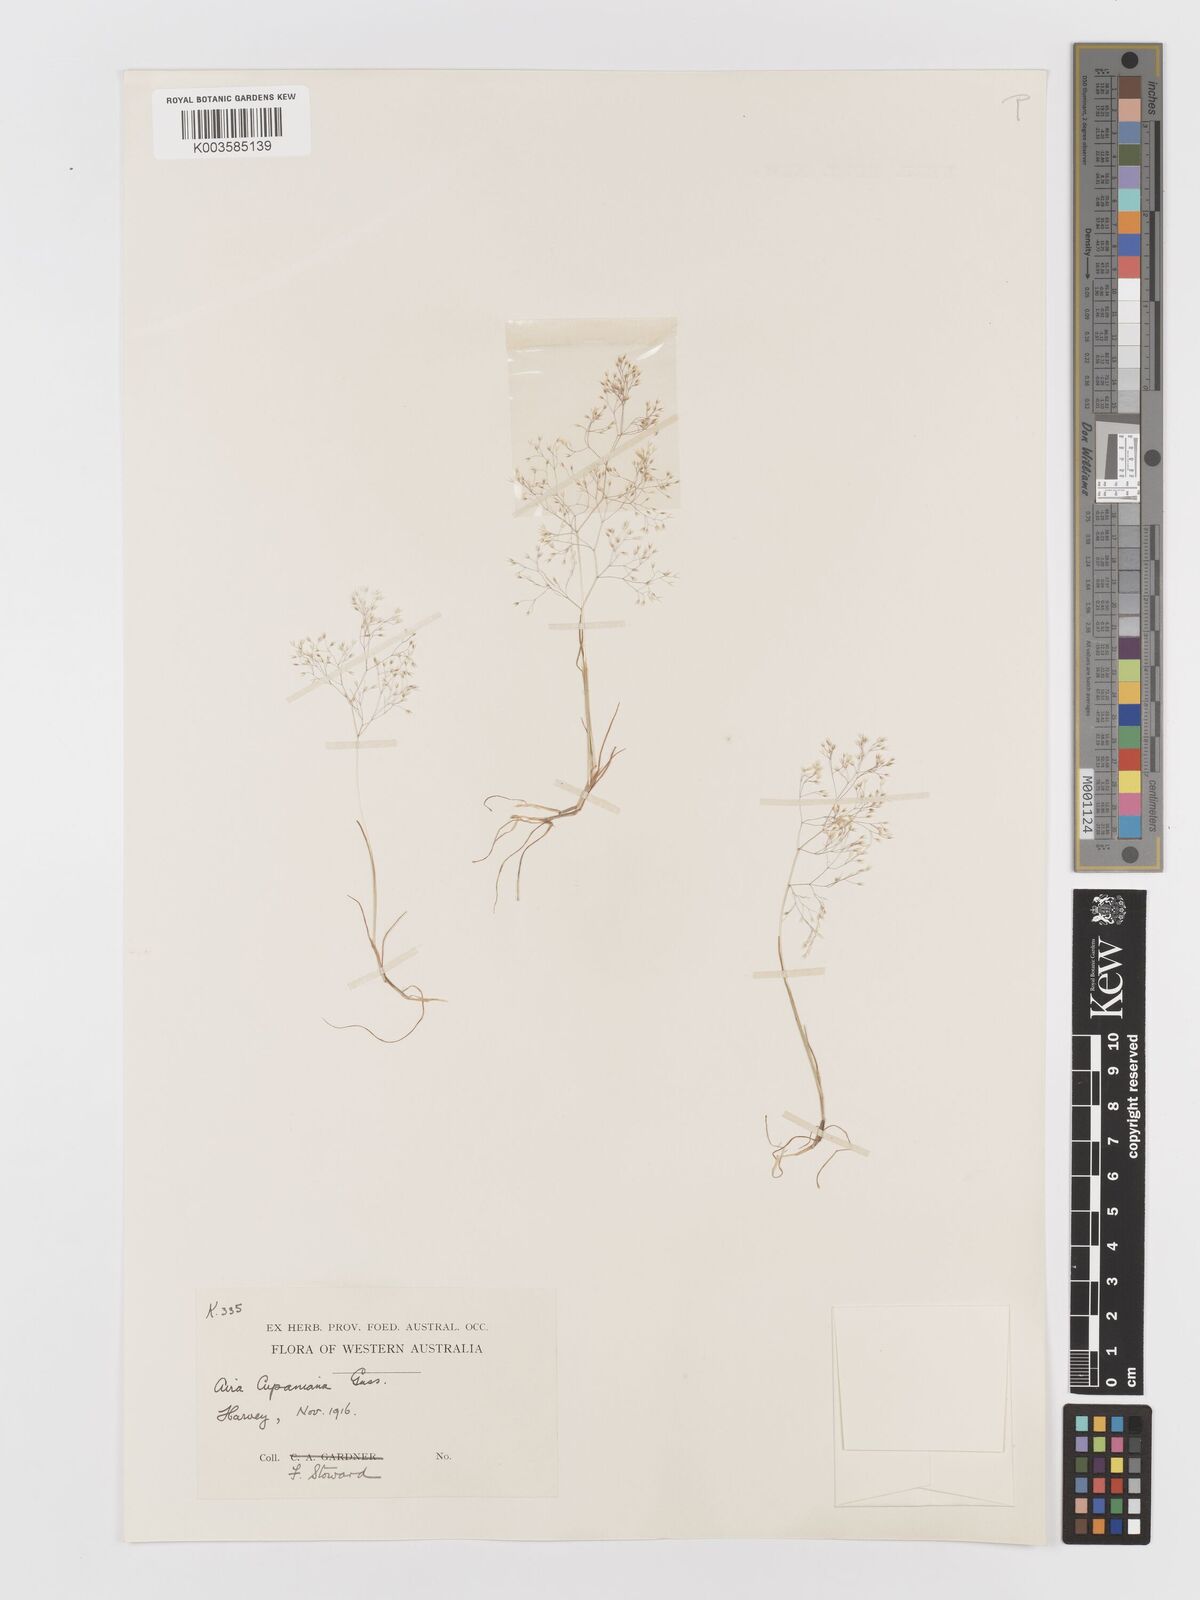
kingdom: Plantae
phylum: Tracheophyta
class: Liliopsida
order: Poales
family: Poaceae
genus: Aira
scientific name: Aira cupaniana
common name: Silver hairgrass
